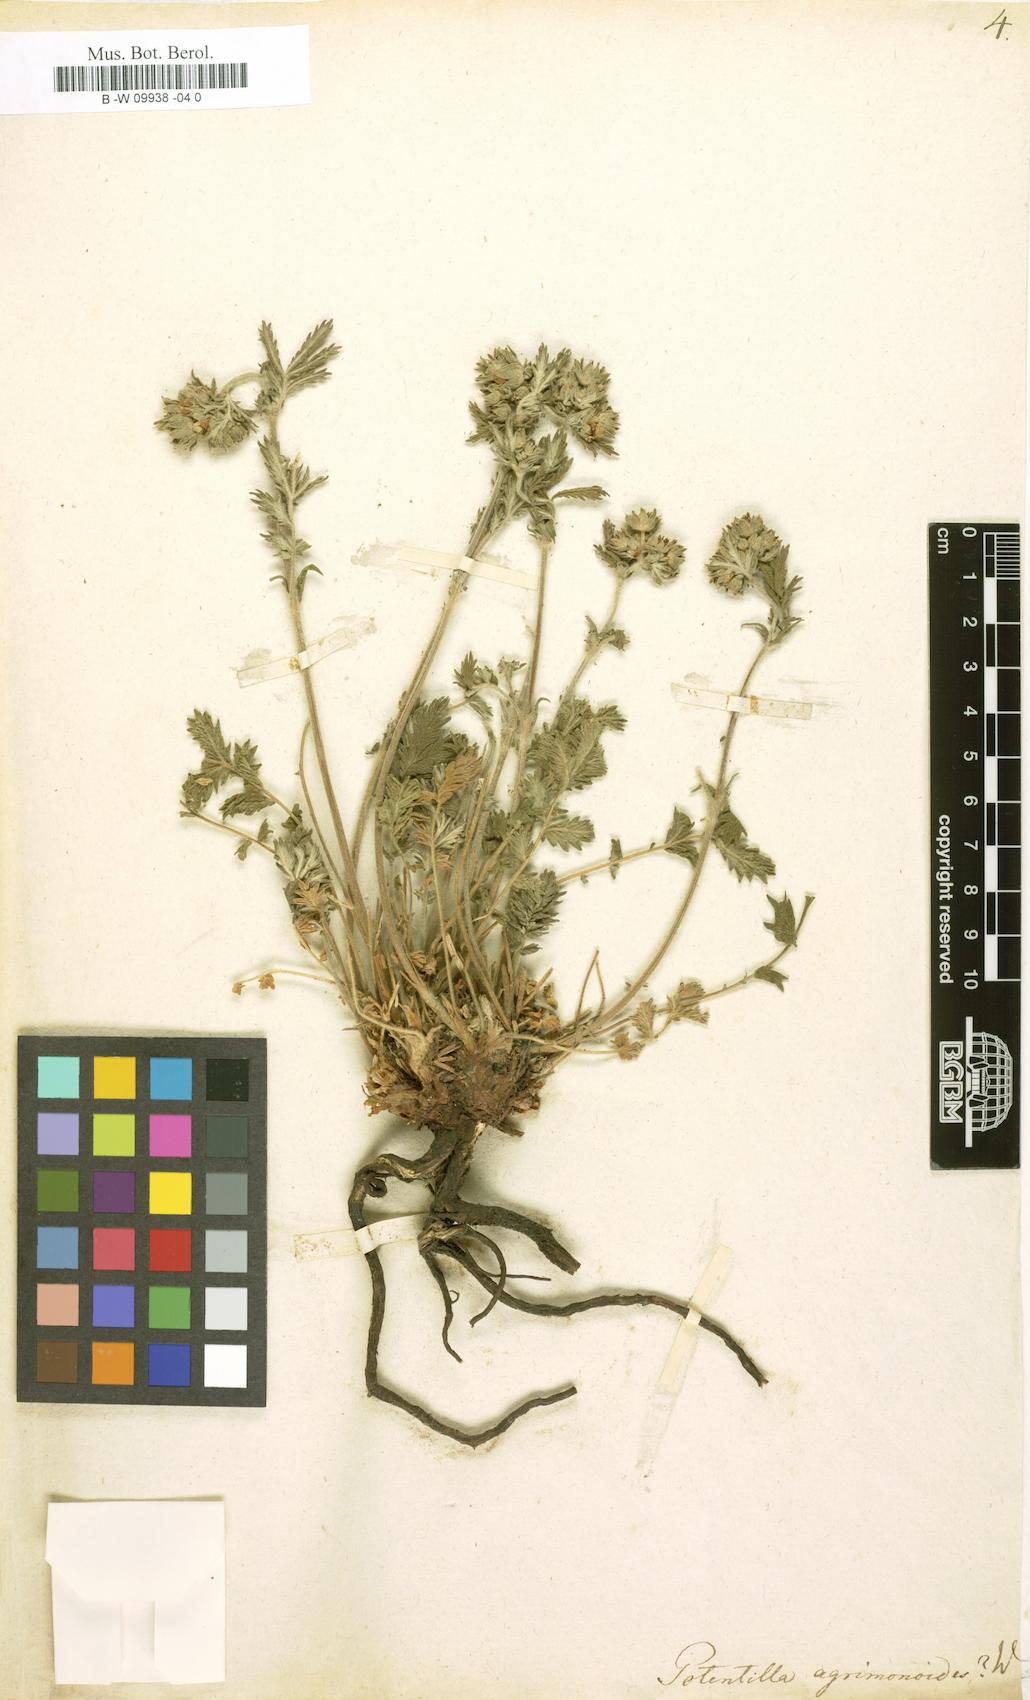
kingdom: Plantae
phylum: Tracheophyta
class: Magnoliopsida
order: Rosales
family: Rosaceae
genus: Potentilla
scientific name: Potentilla agrimonoides
